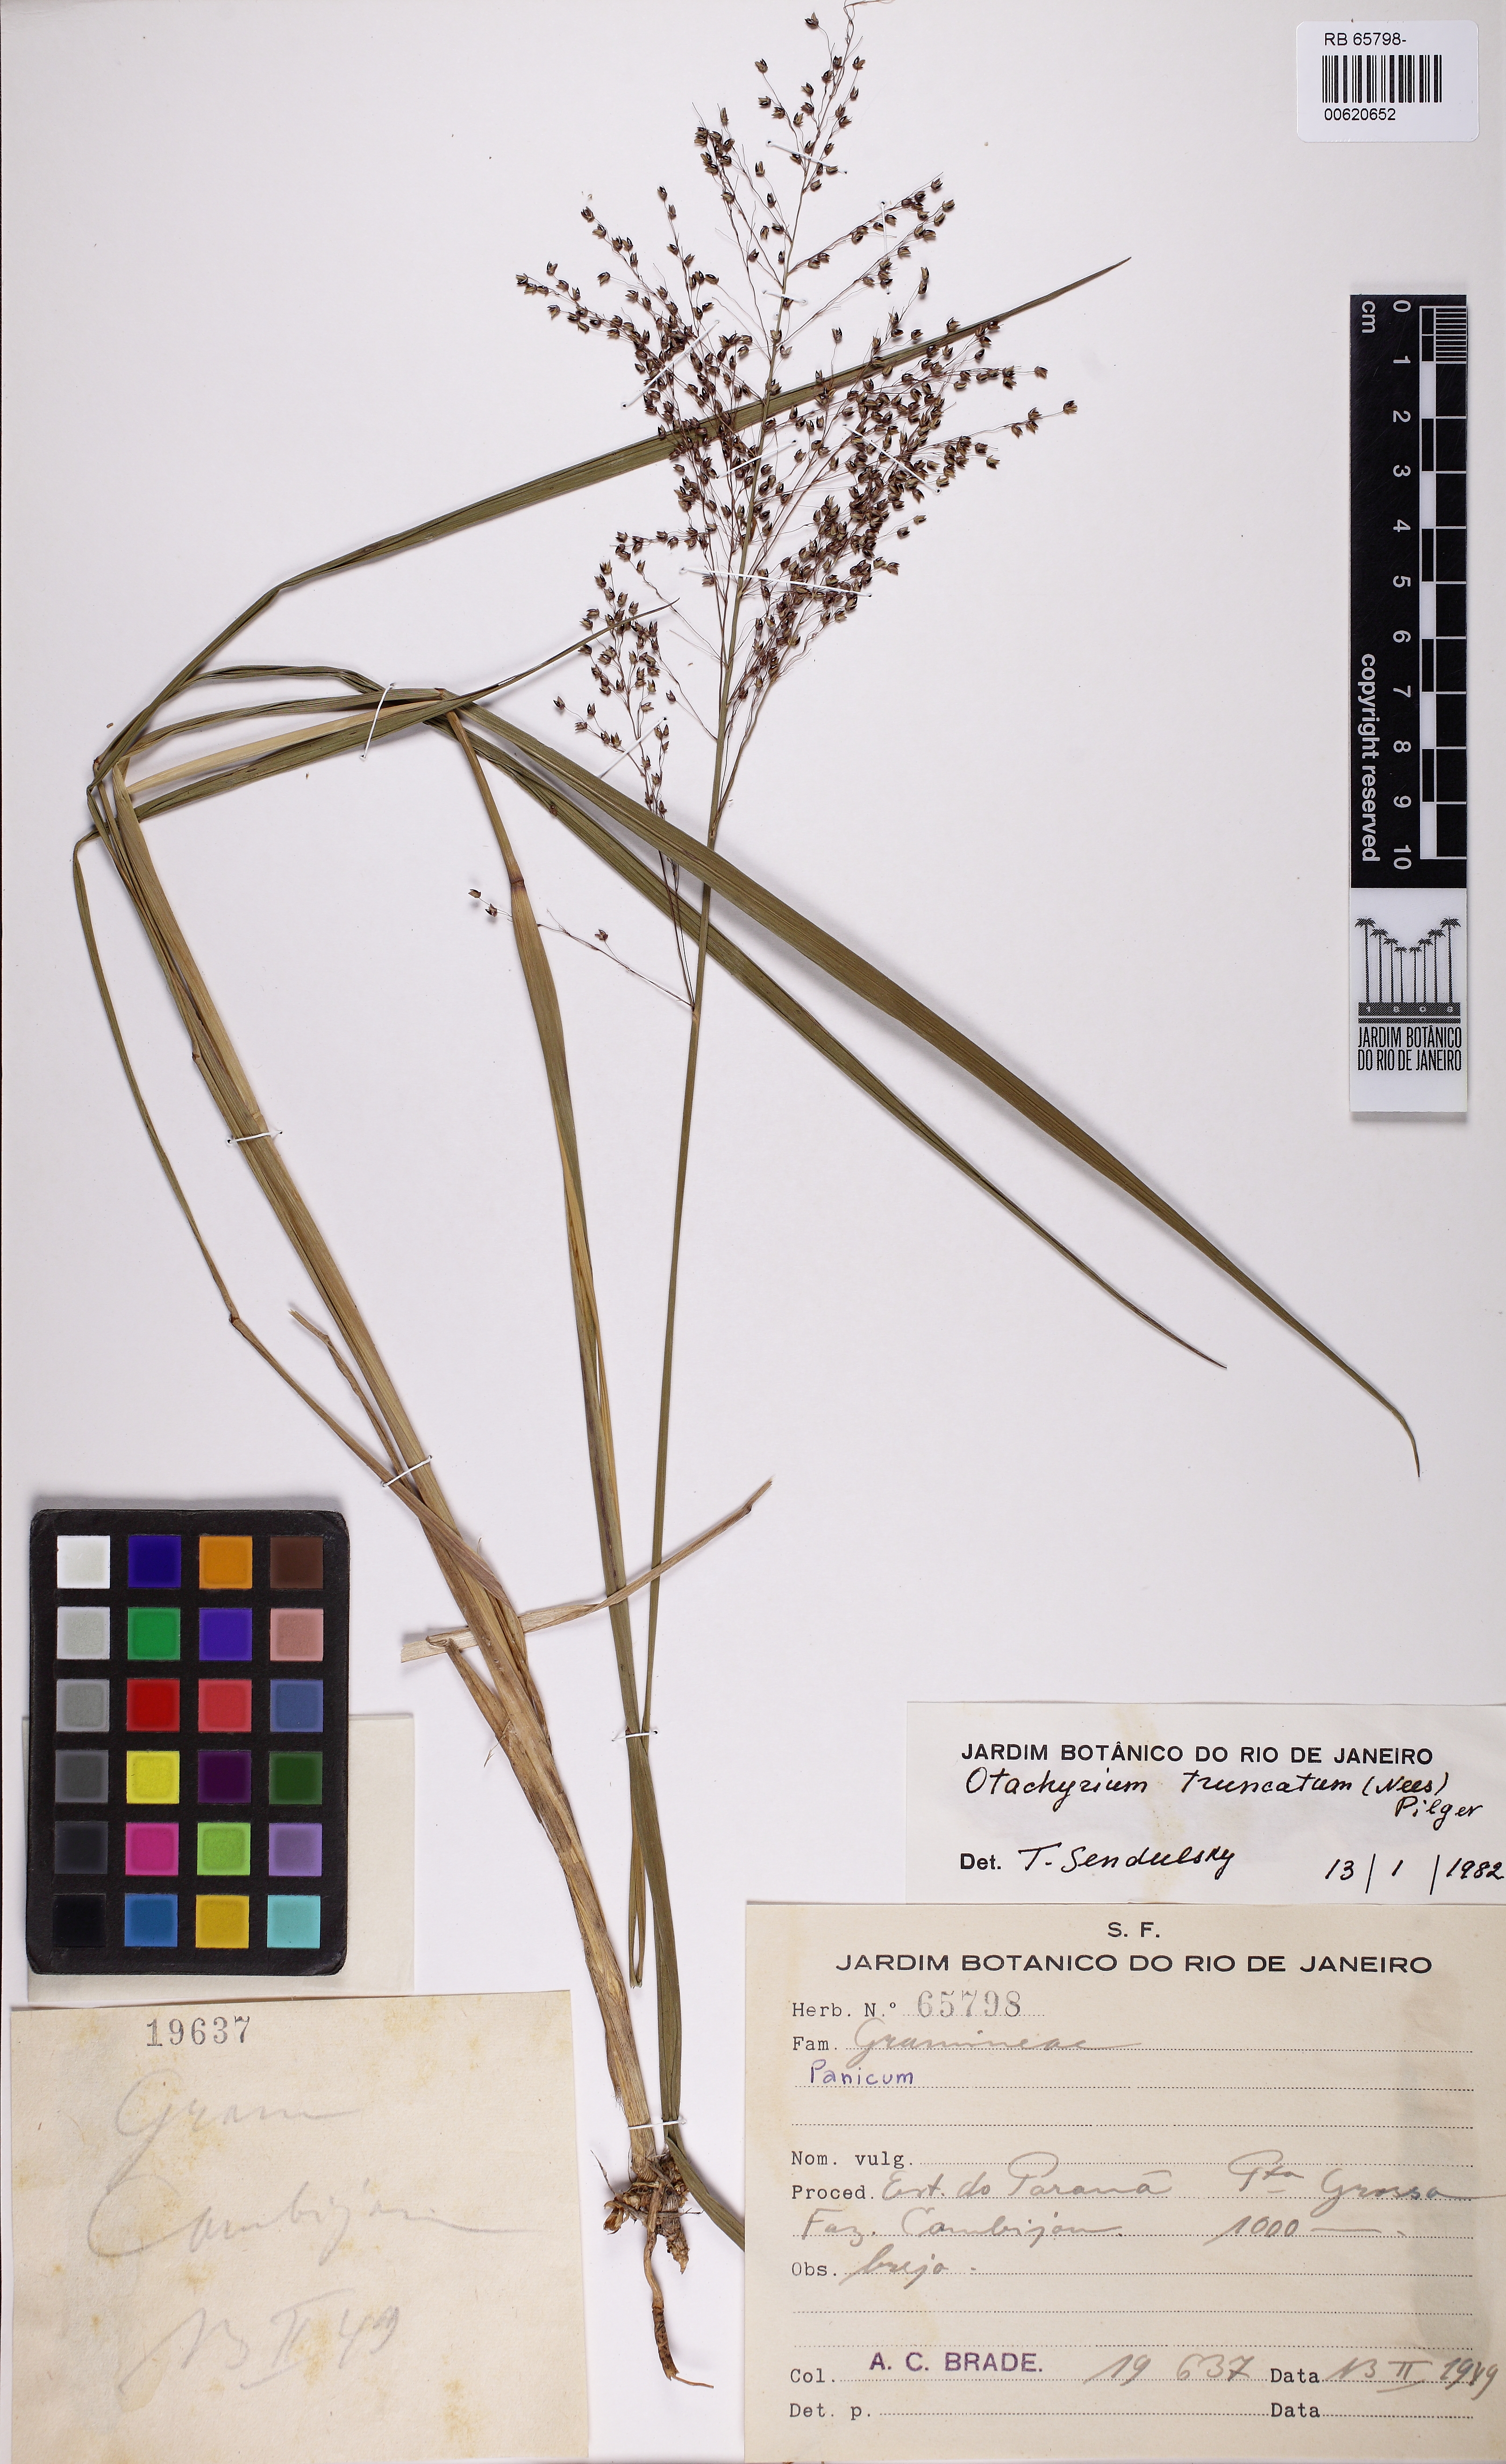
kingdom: Plantae
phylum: Tracheophyta
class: Liliopsida
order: Poales
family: Poaceae
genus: Otachyrium
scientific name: Otachyrium versicolor
